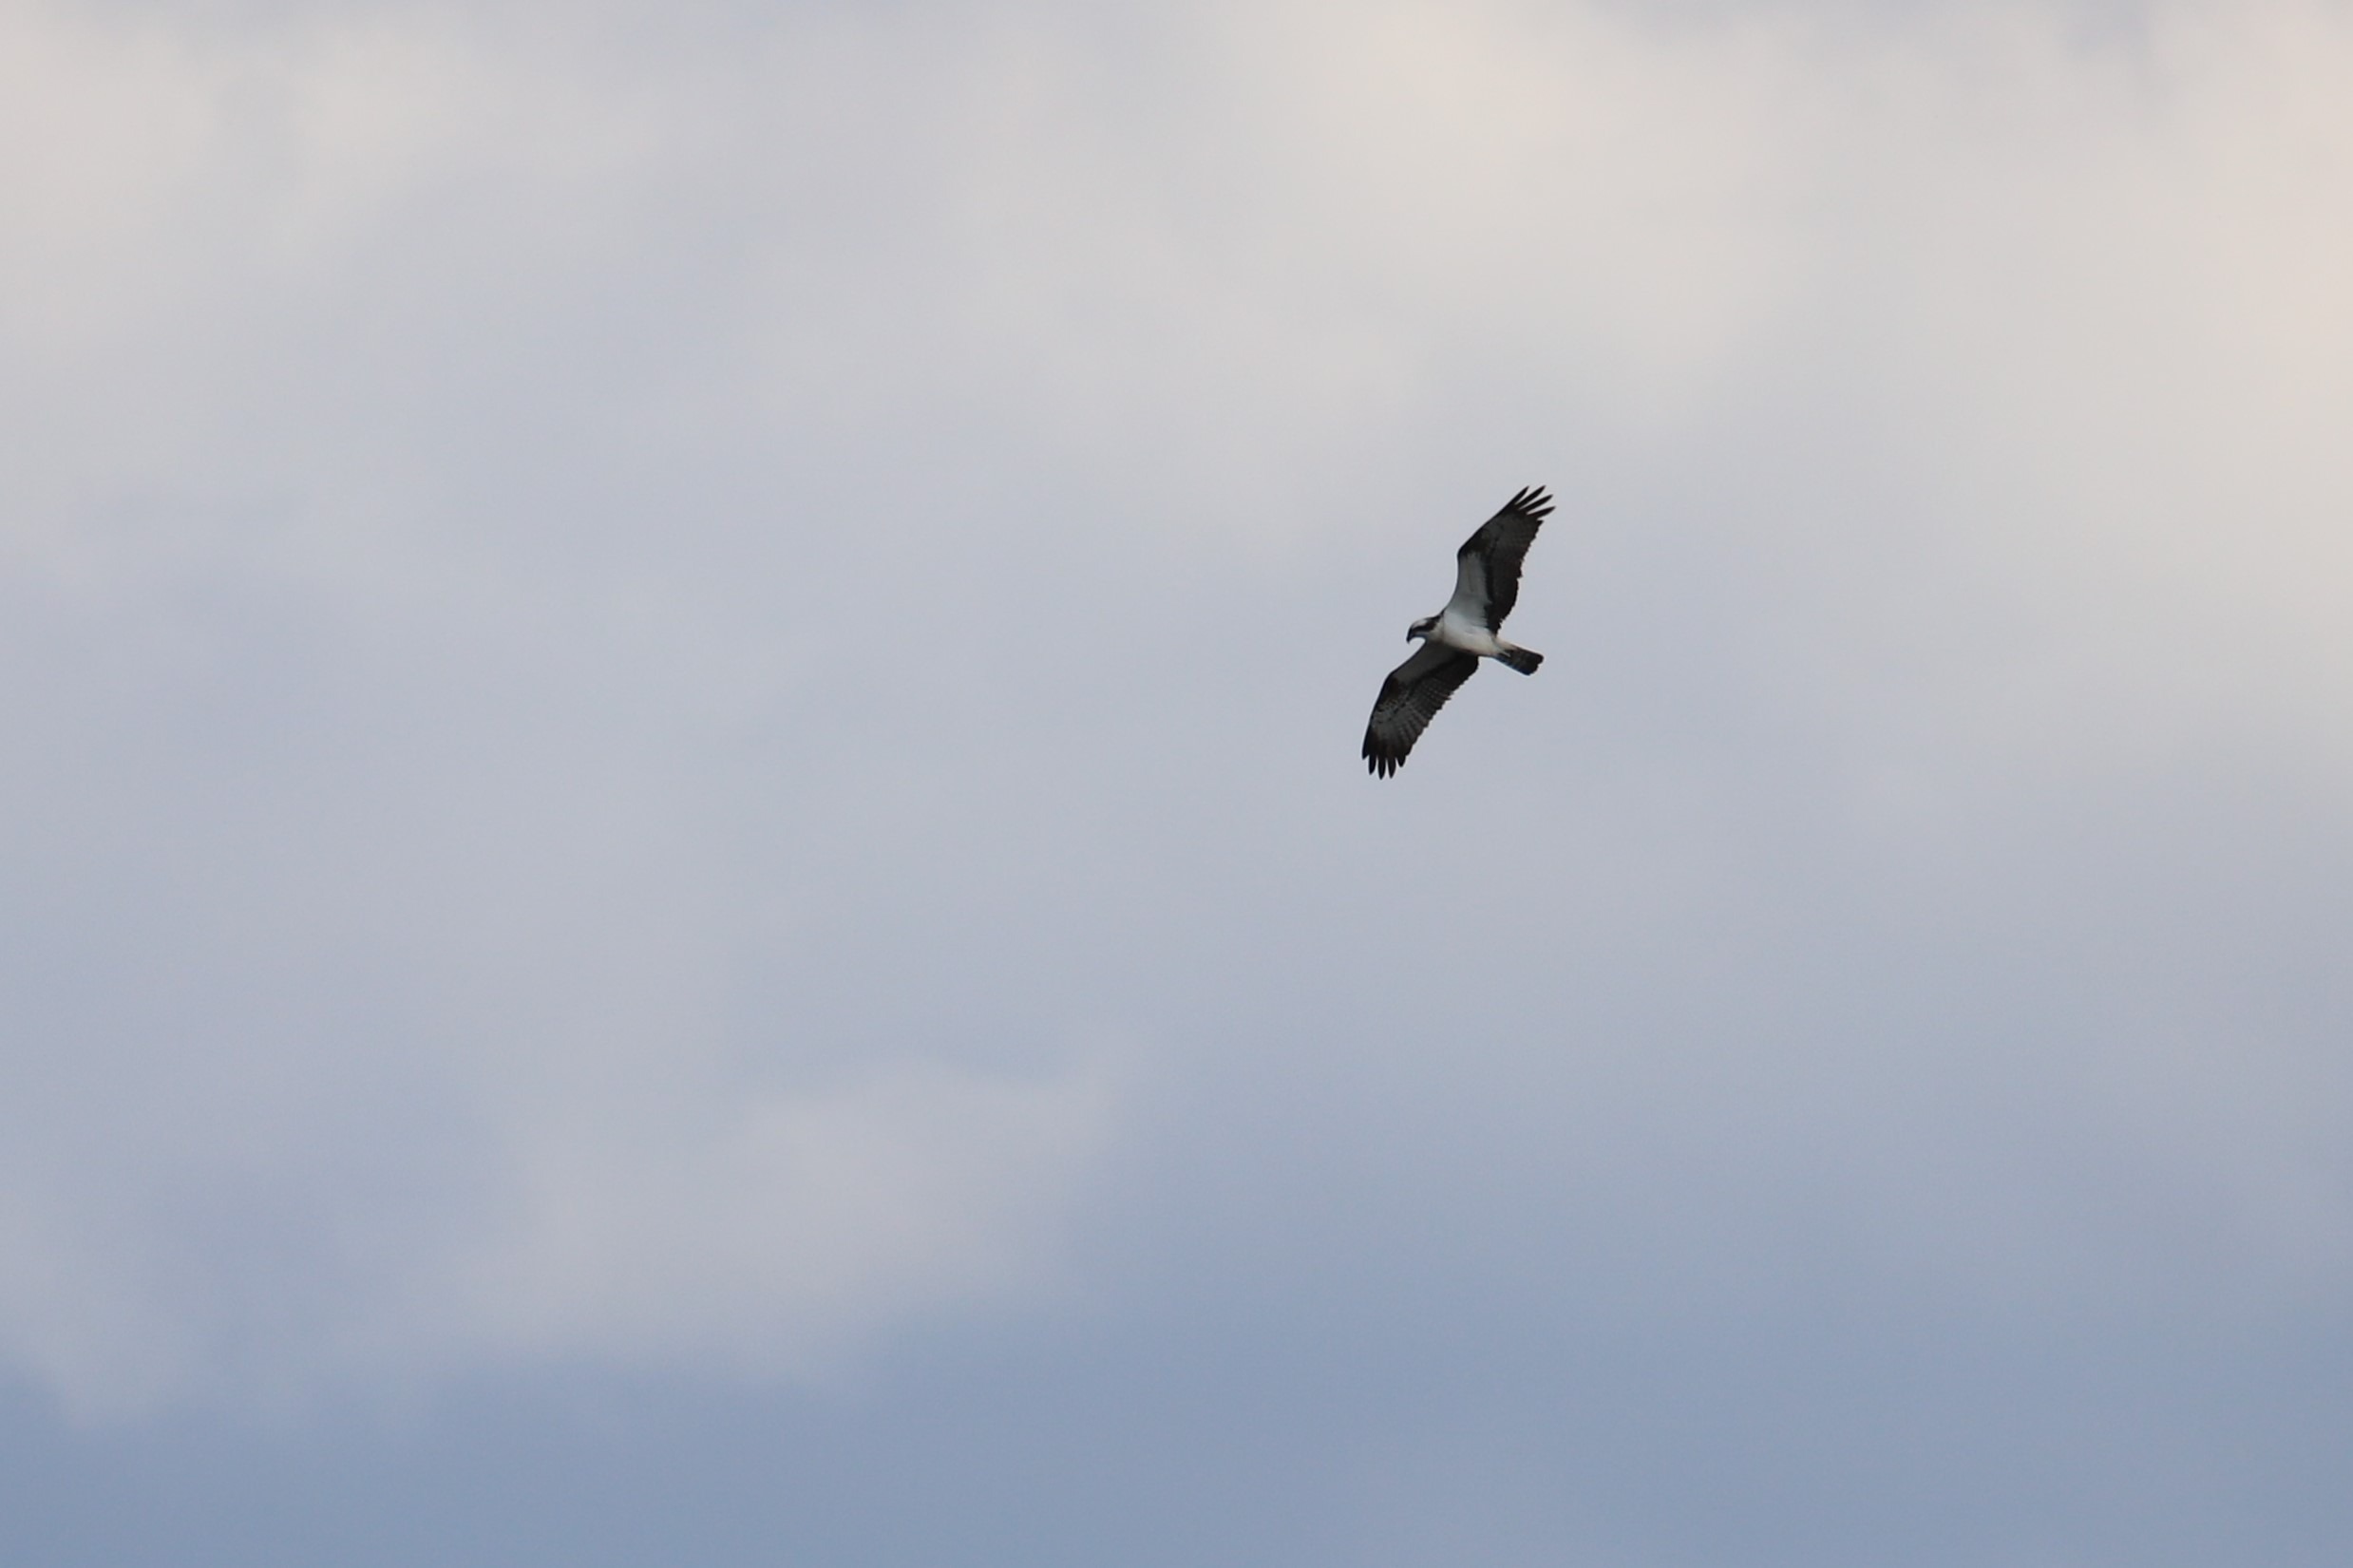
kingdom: Animalia
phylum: Chordata
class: Aves
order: Accipitriformes
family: Pandionidae
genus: Pandion
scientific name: Pandion haliaetus
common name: Fiskeørn
